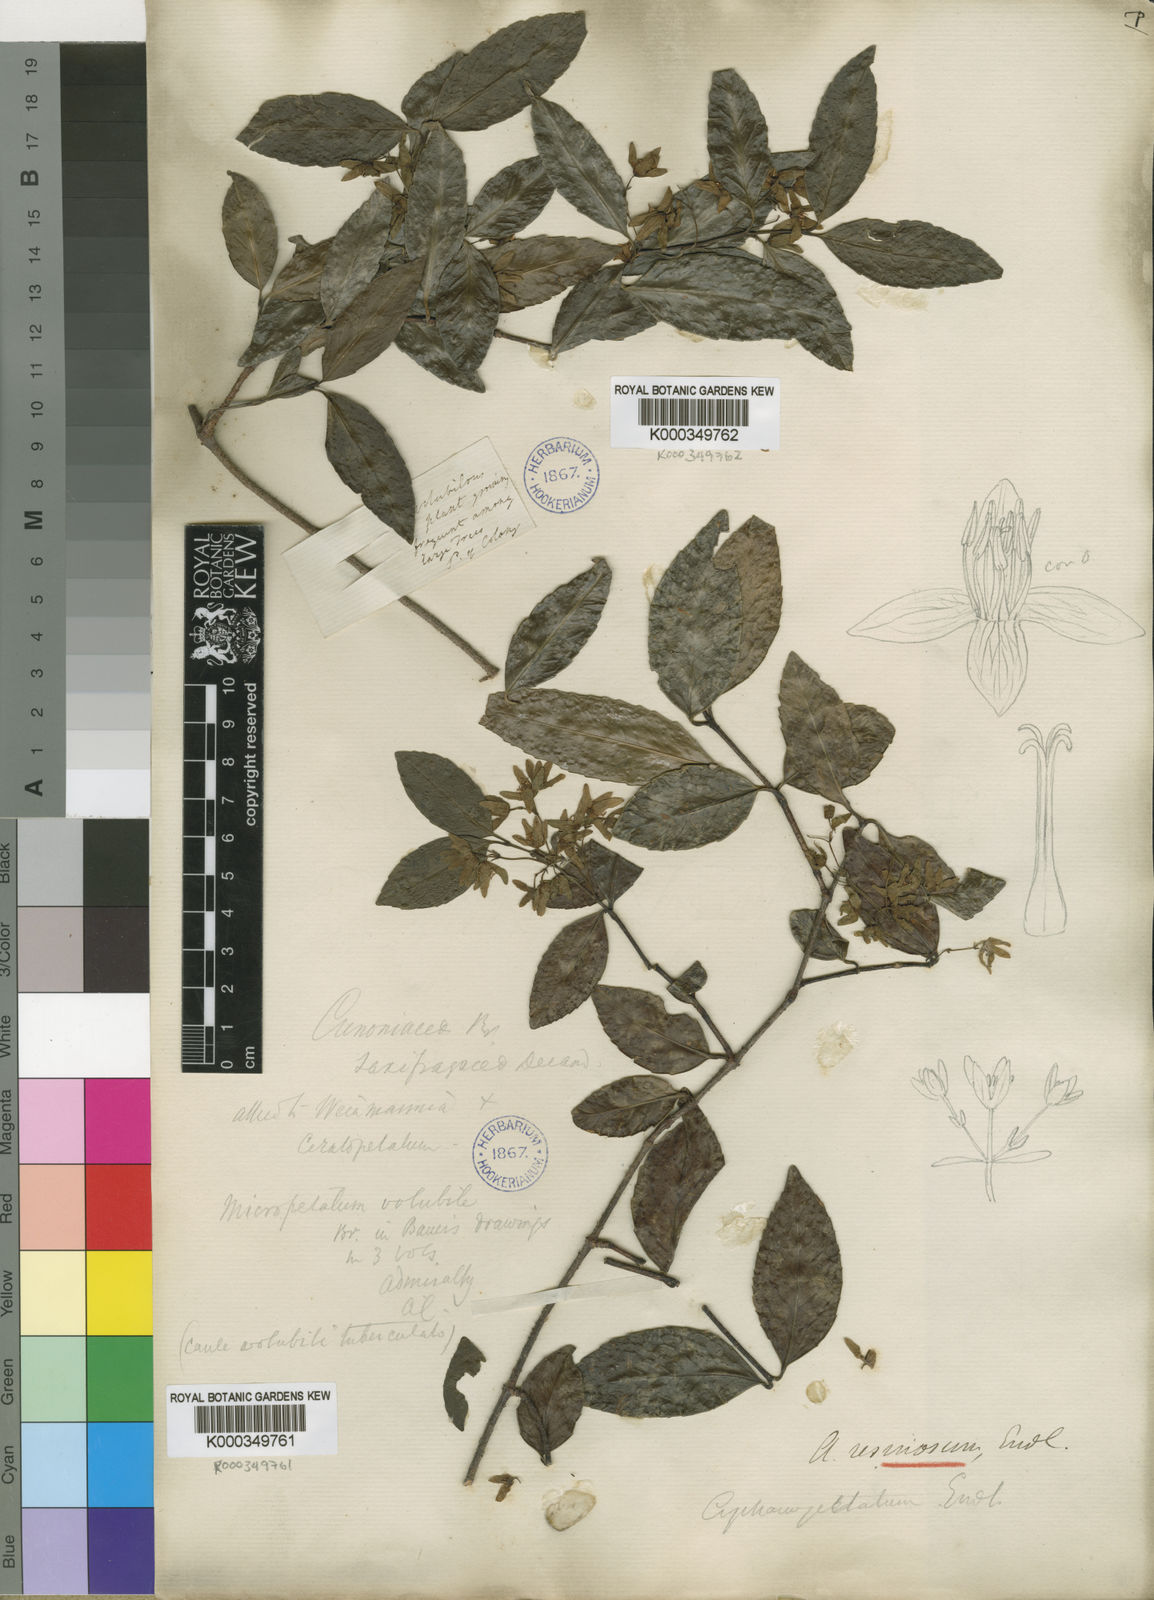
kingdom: Plantae
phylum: Tracheophyta
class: Magnoliopsida
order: Saxifragales
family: Aphanopetalaceae
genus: Aphanopetalum
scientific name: Aphanopetalum resinosum
